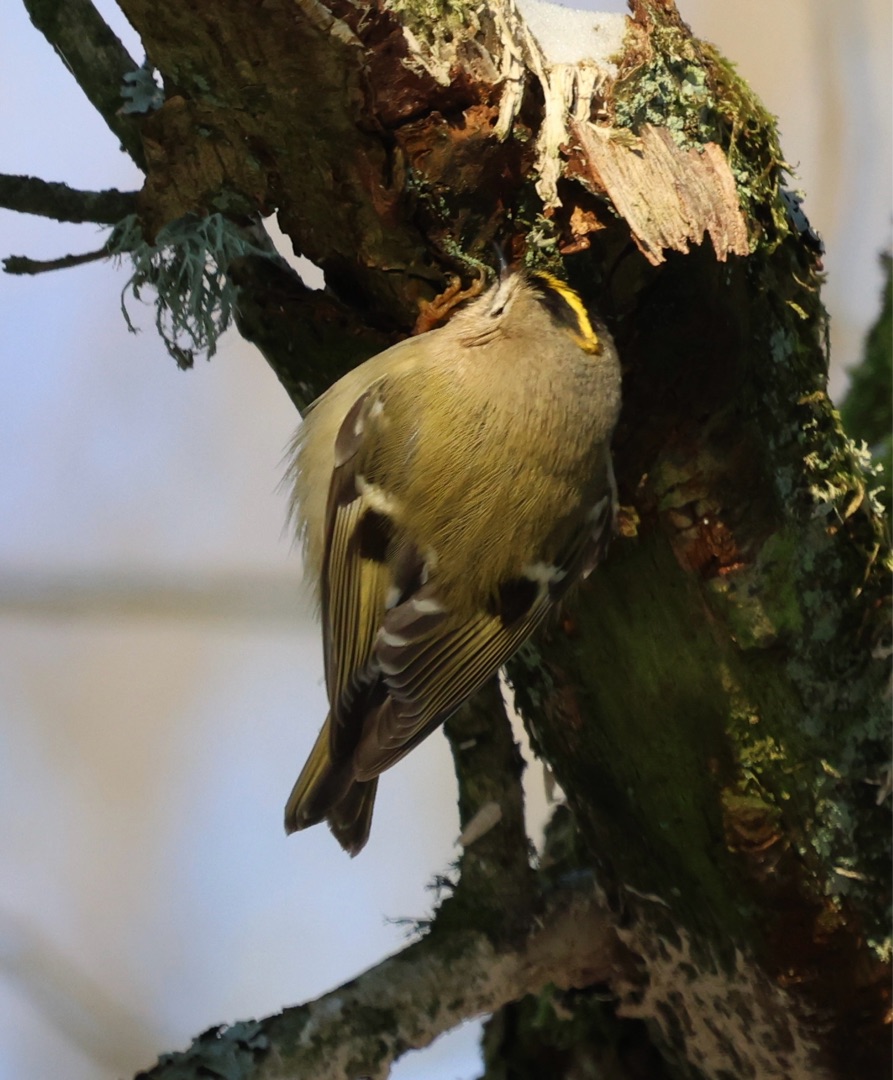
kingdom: Animalia
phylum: Chordata
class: Aves
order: Passeriformes
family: Regulidae
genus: Regulus
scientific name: Regulus regulus
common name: Fuglekonge
